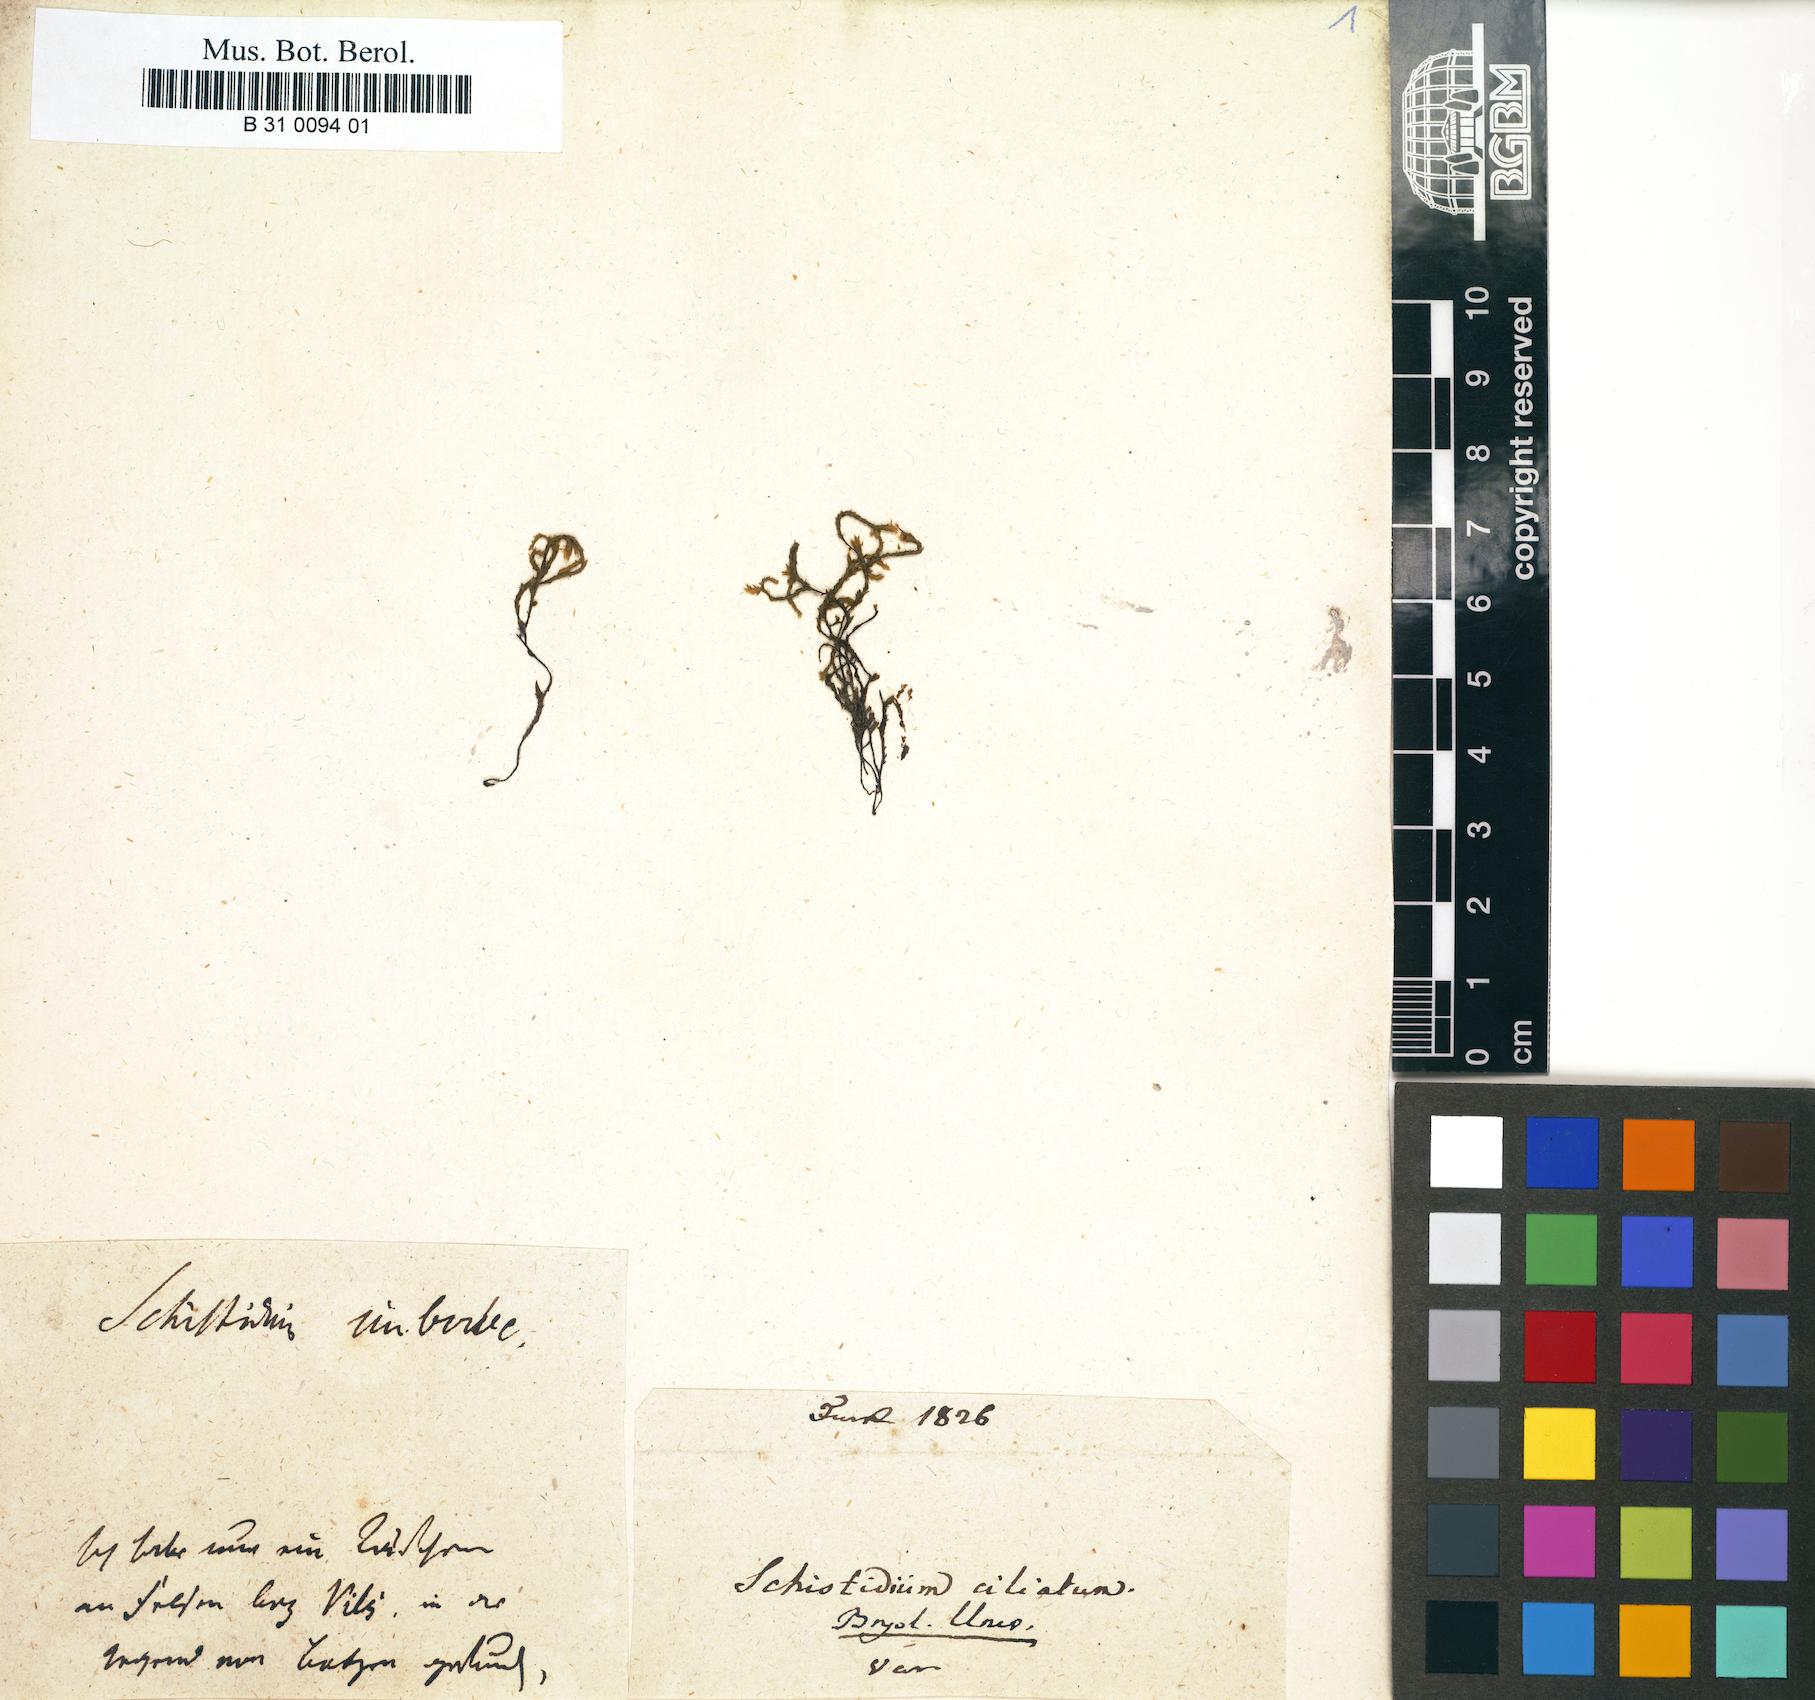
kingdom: Plantae
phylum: Bryophyta
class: Bryopsida
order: Hedwigiales
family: Hedwigiaceae
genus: Hedwigidium
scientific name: Hedwigidium imberbe
